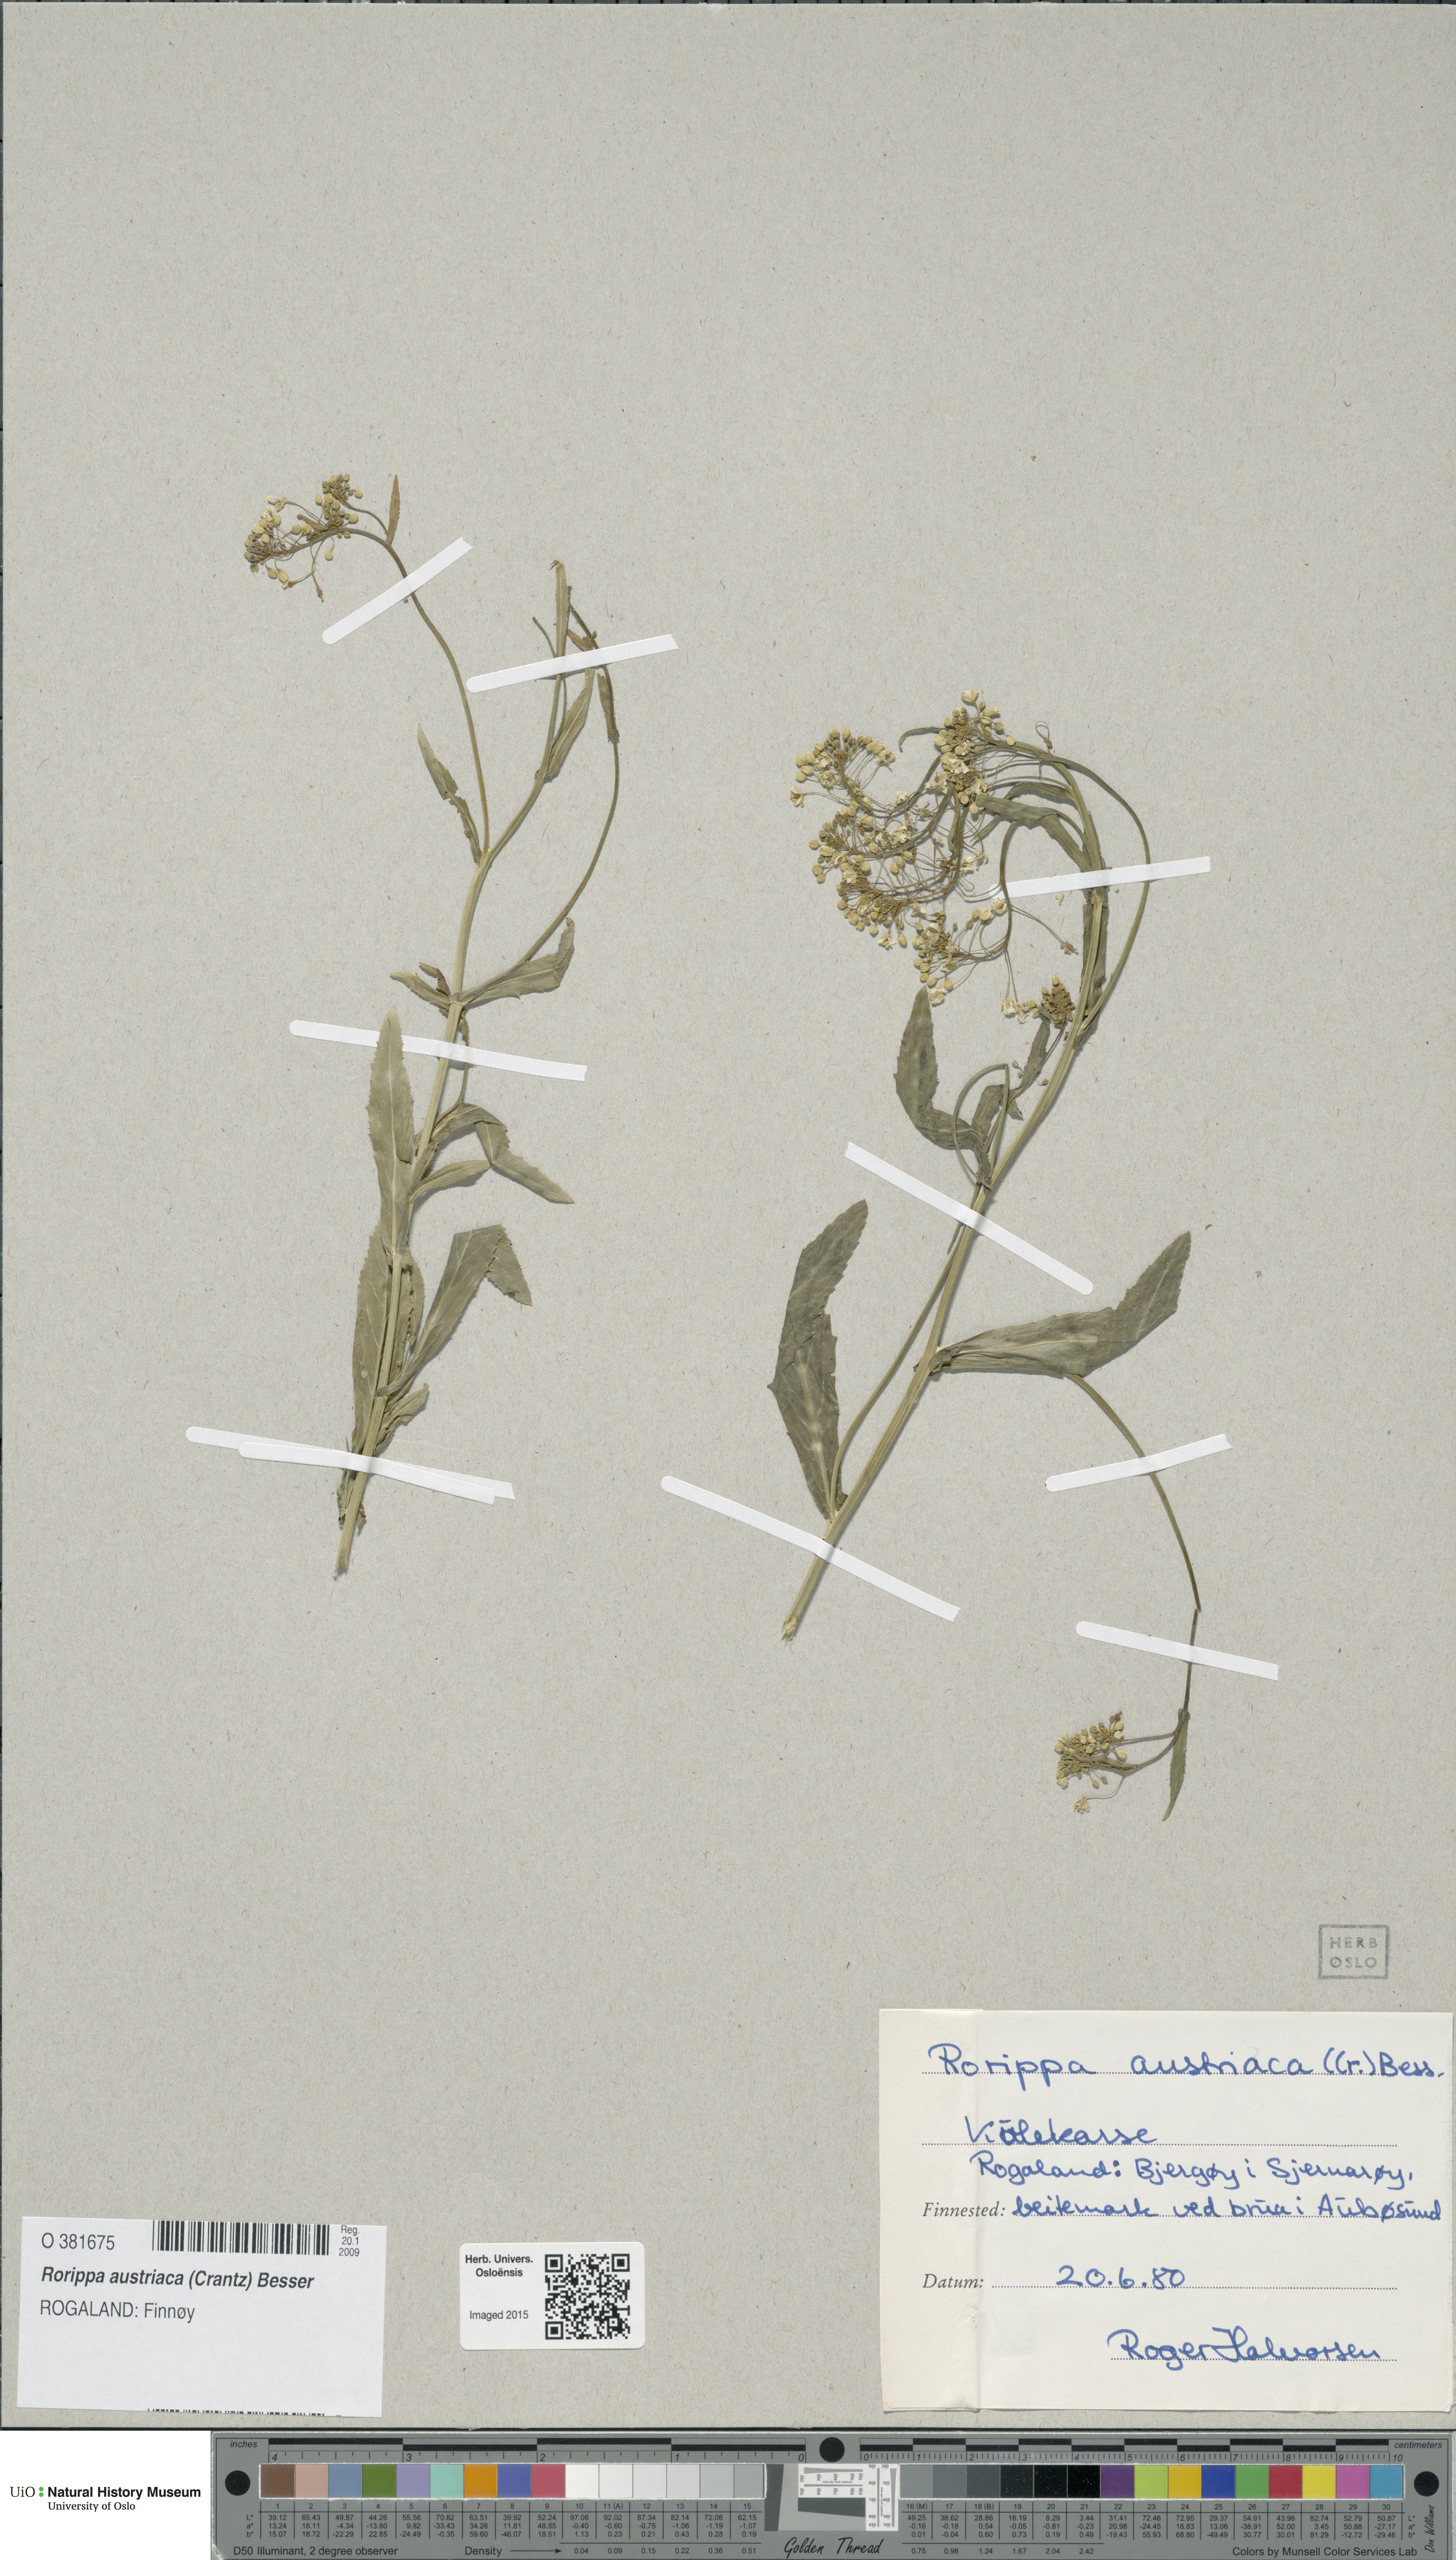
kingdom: Plantae
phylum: Tracheophyta
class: Magnoliopsida
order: Brassicales
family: Brassicaceae
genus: Rorippa
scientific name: Rorippa austriaca
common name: Austrian yellow-cress
